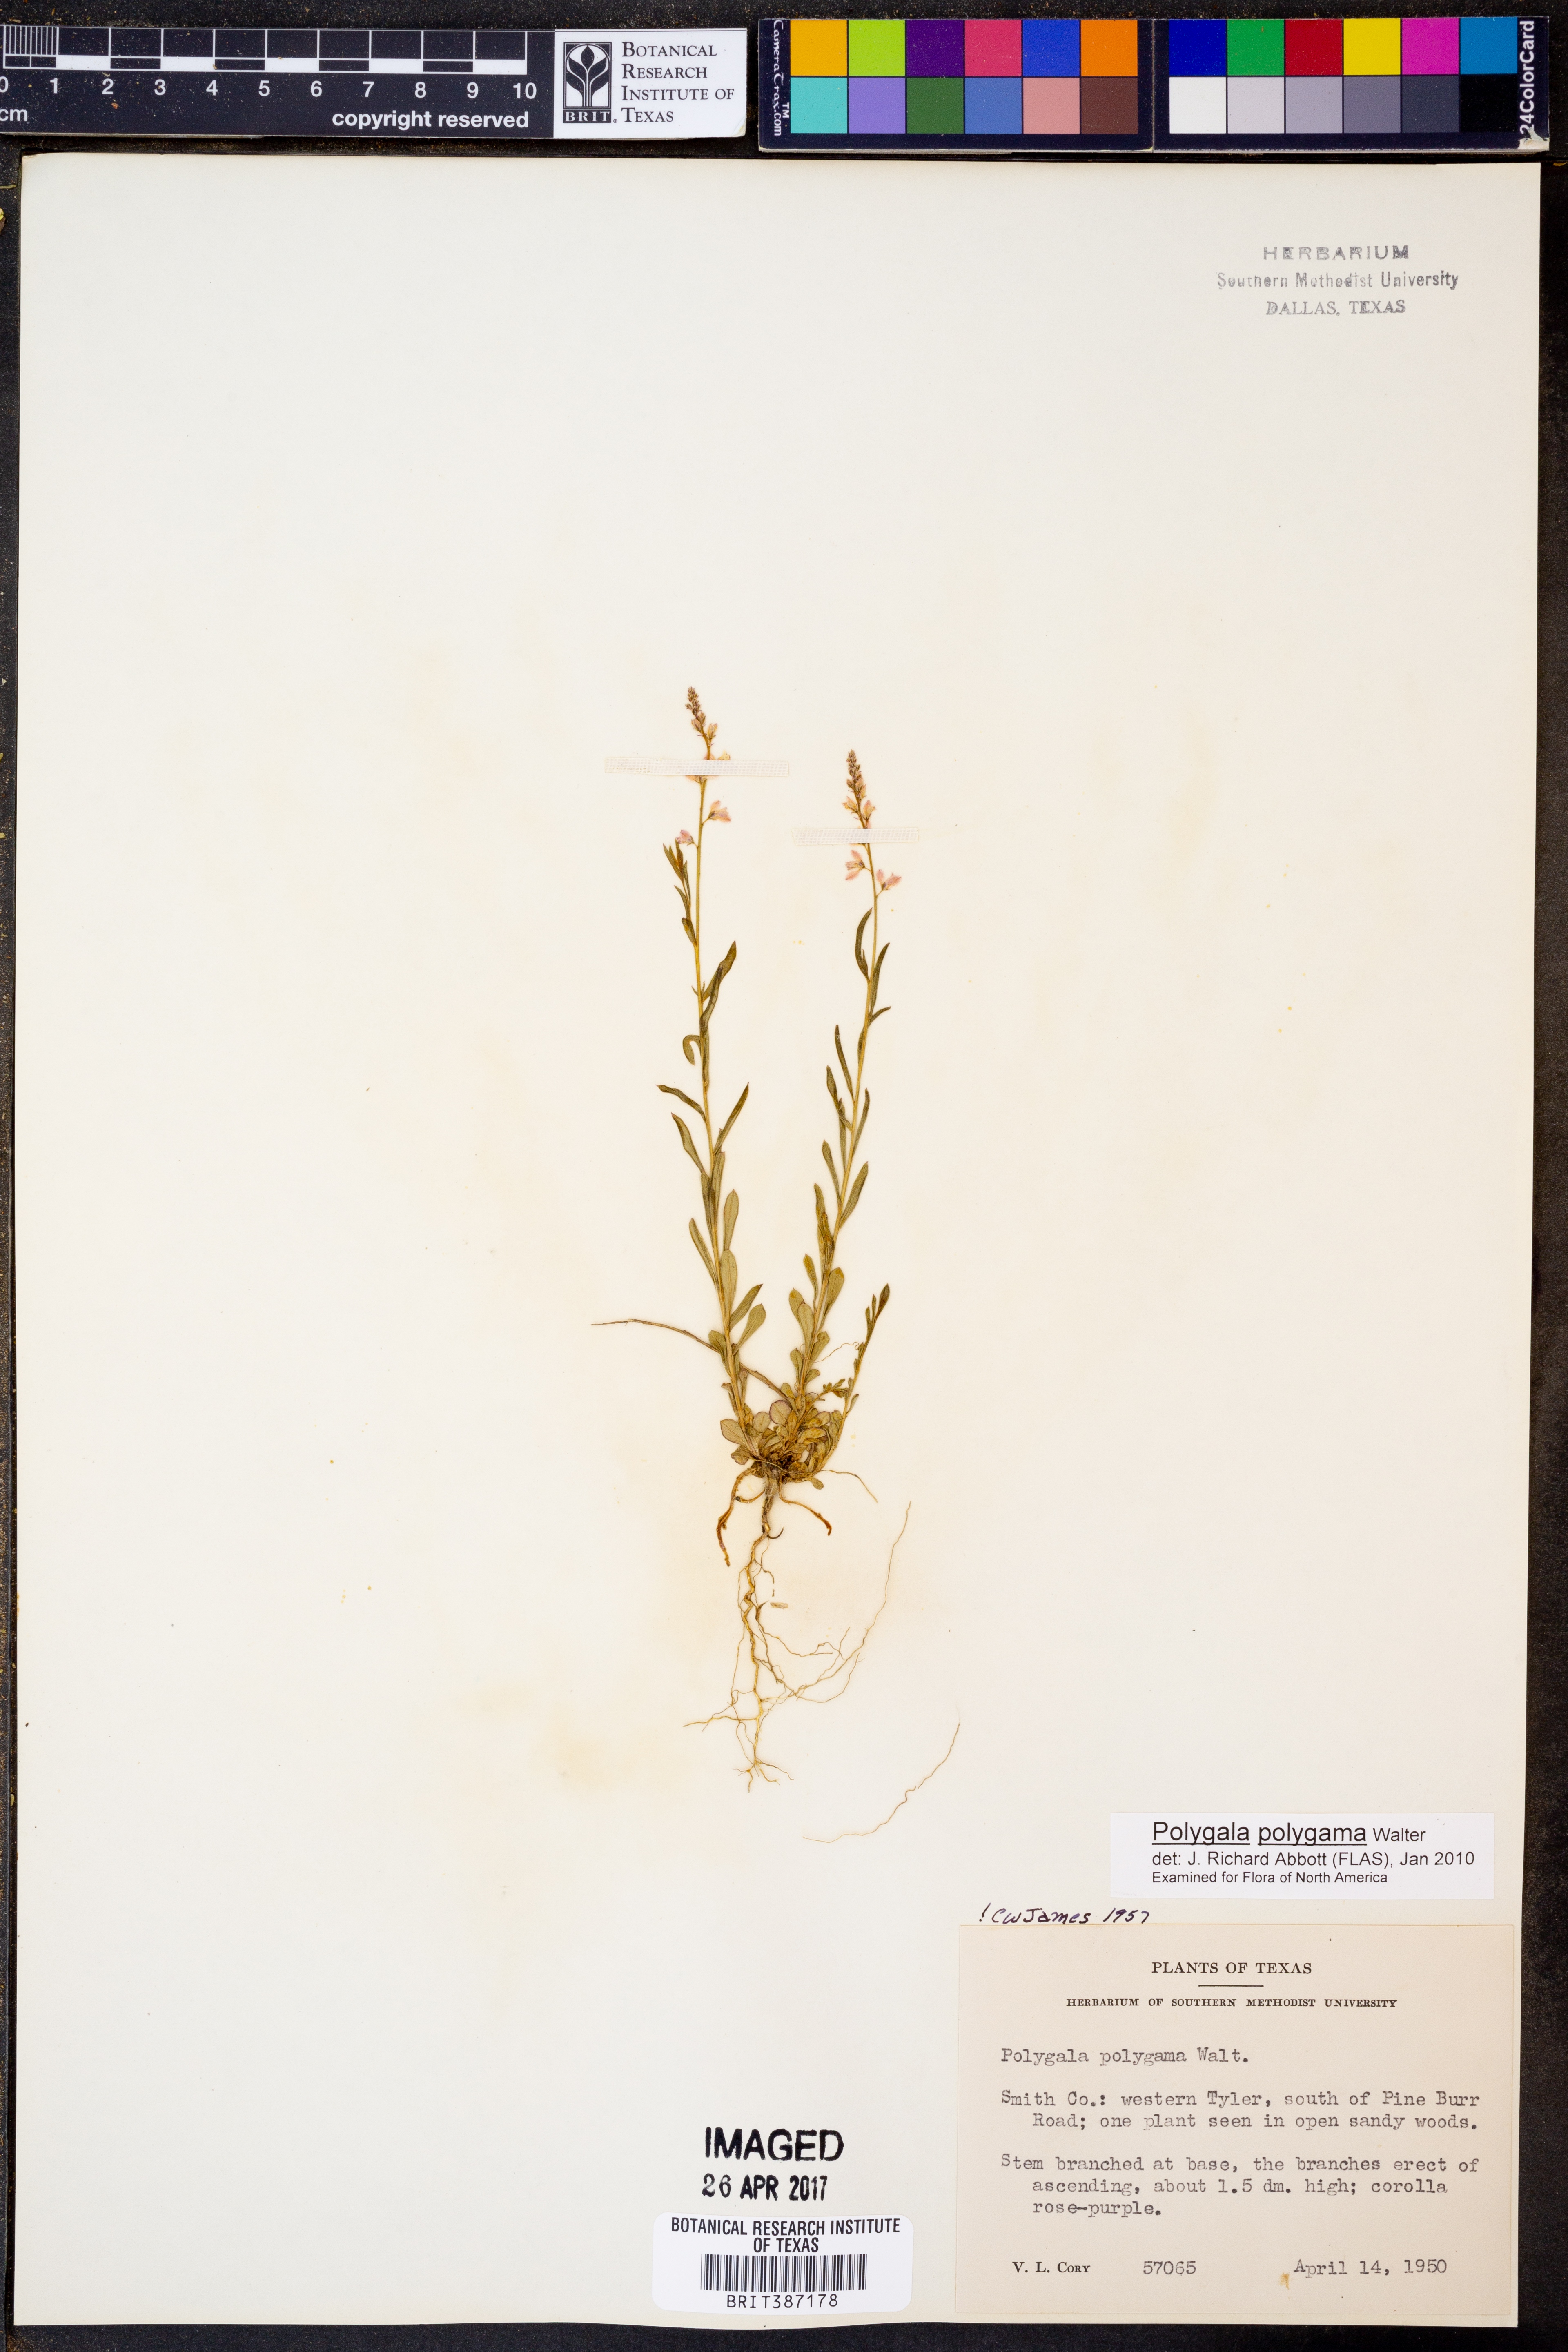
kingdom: Plantae
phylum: Tracheophyta
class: Magnoliopsida
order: Fabales
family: Polygalaceae
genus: Polygala
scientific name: Polygala polygama
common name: Bitter milkwort
